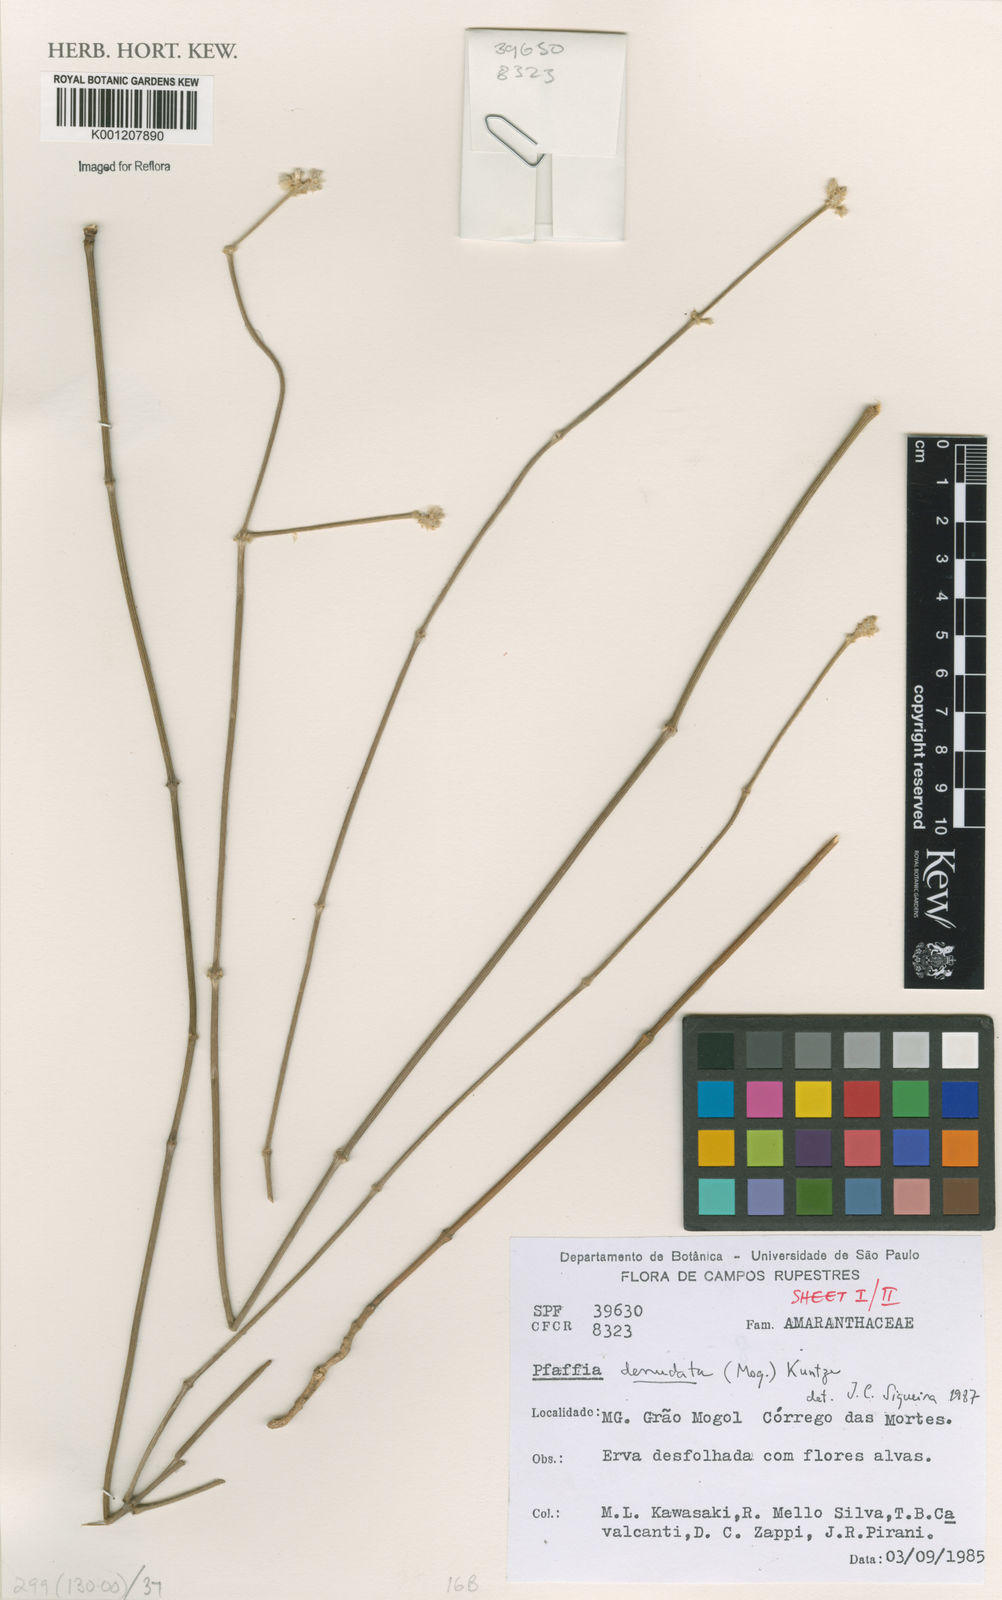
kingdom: Plantae
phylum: Tracheophyta
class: Magnoliopsida
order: Caryophyllales
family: Amaranthaceae
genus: Pfaffia
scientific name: Pfaffia denudata
